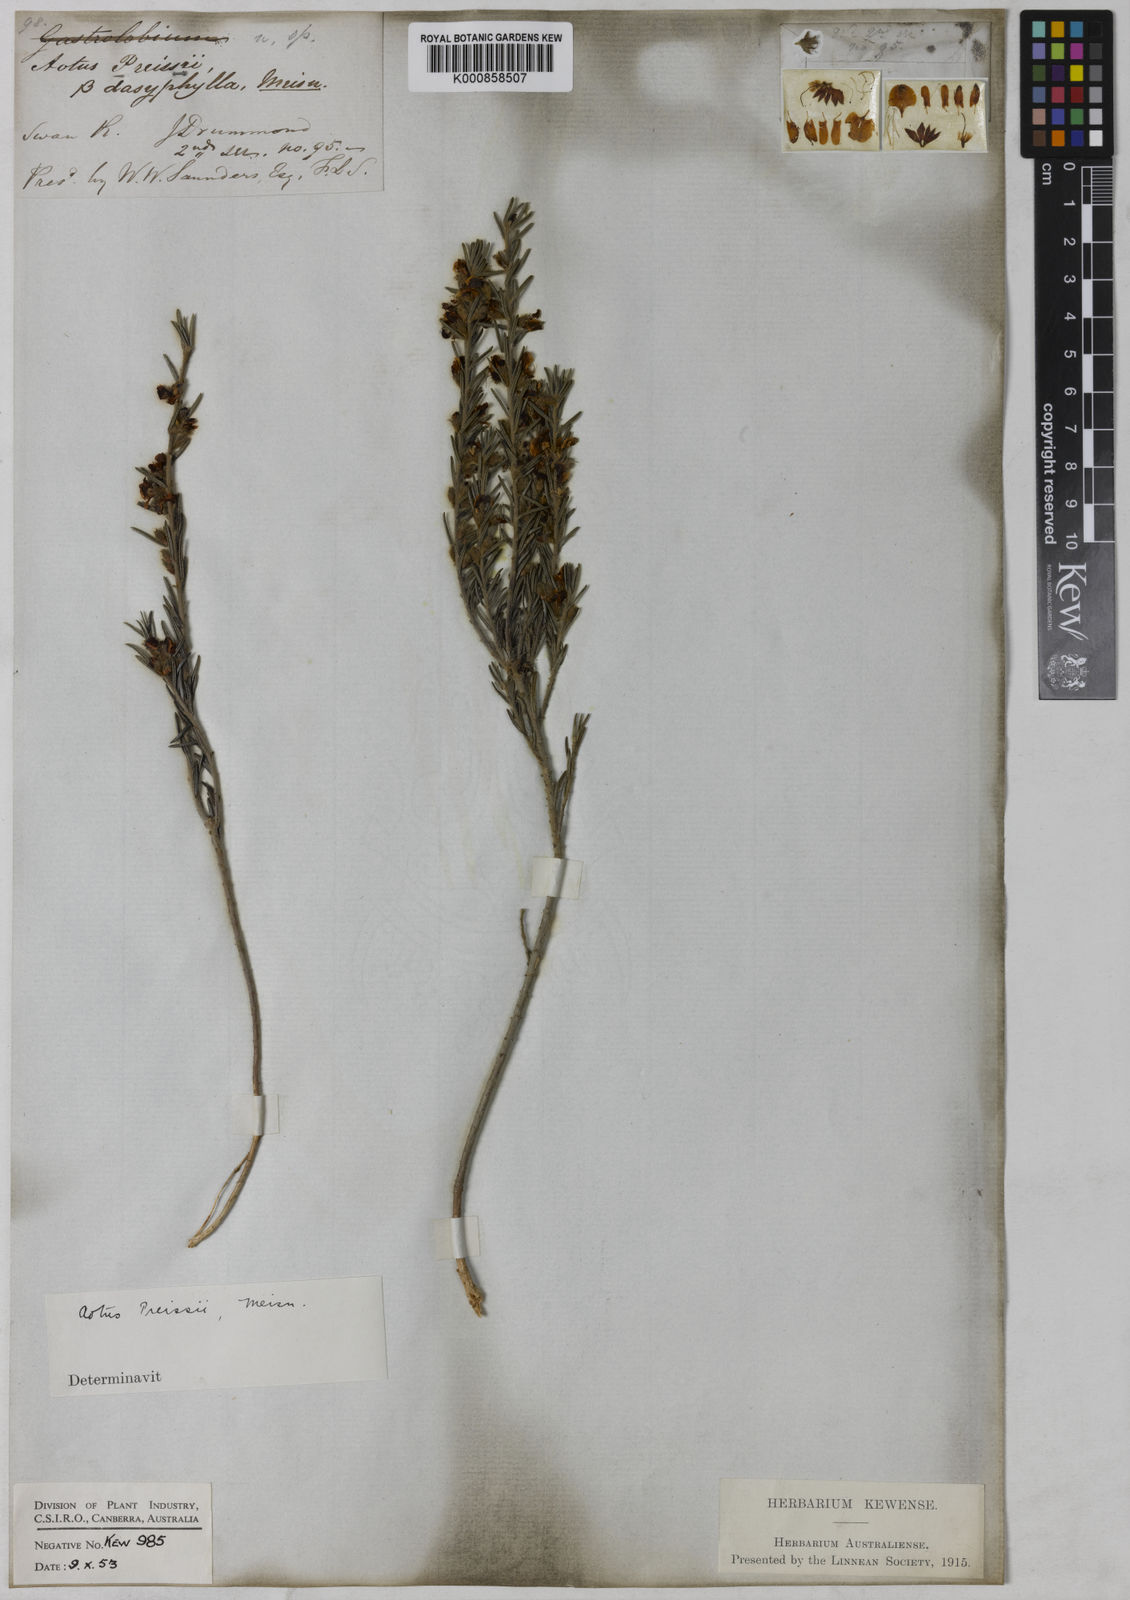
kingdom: Plantae
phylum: Tracheophyta
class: Magnoliopsida
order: Fabales
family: Fabaceae
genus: Aotus
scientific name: Aotus procumbens
